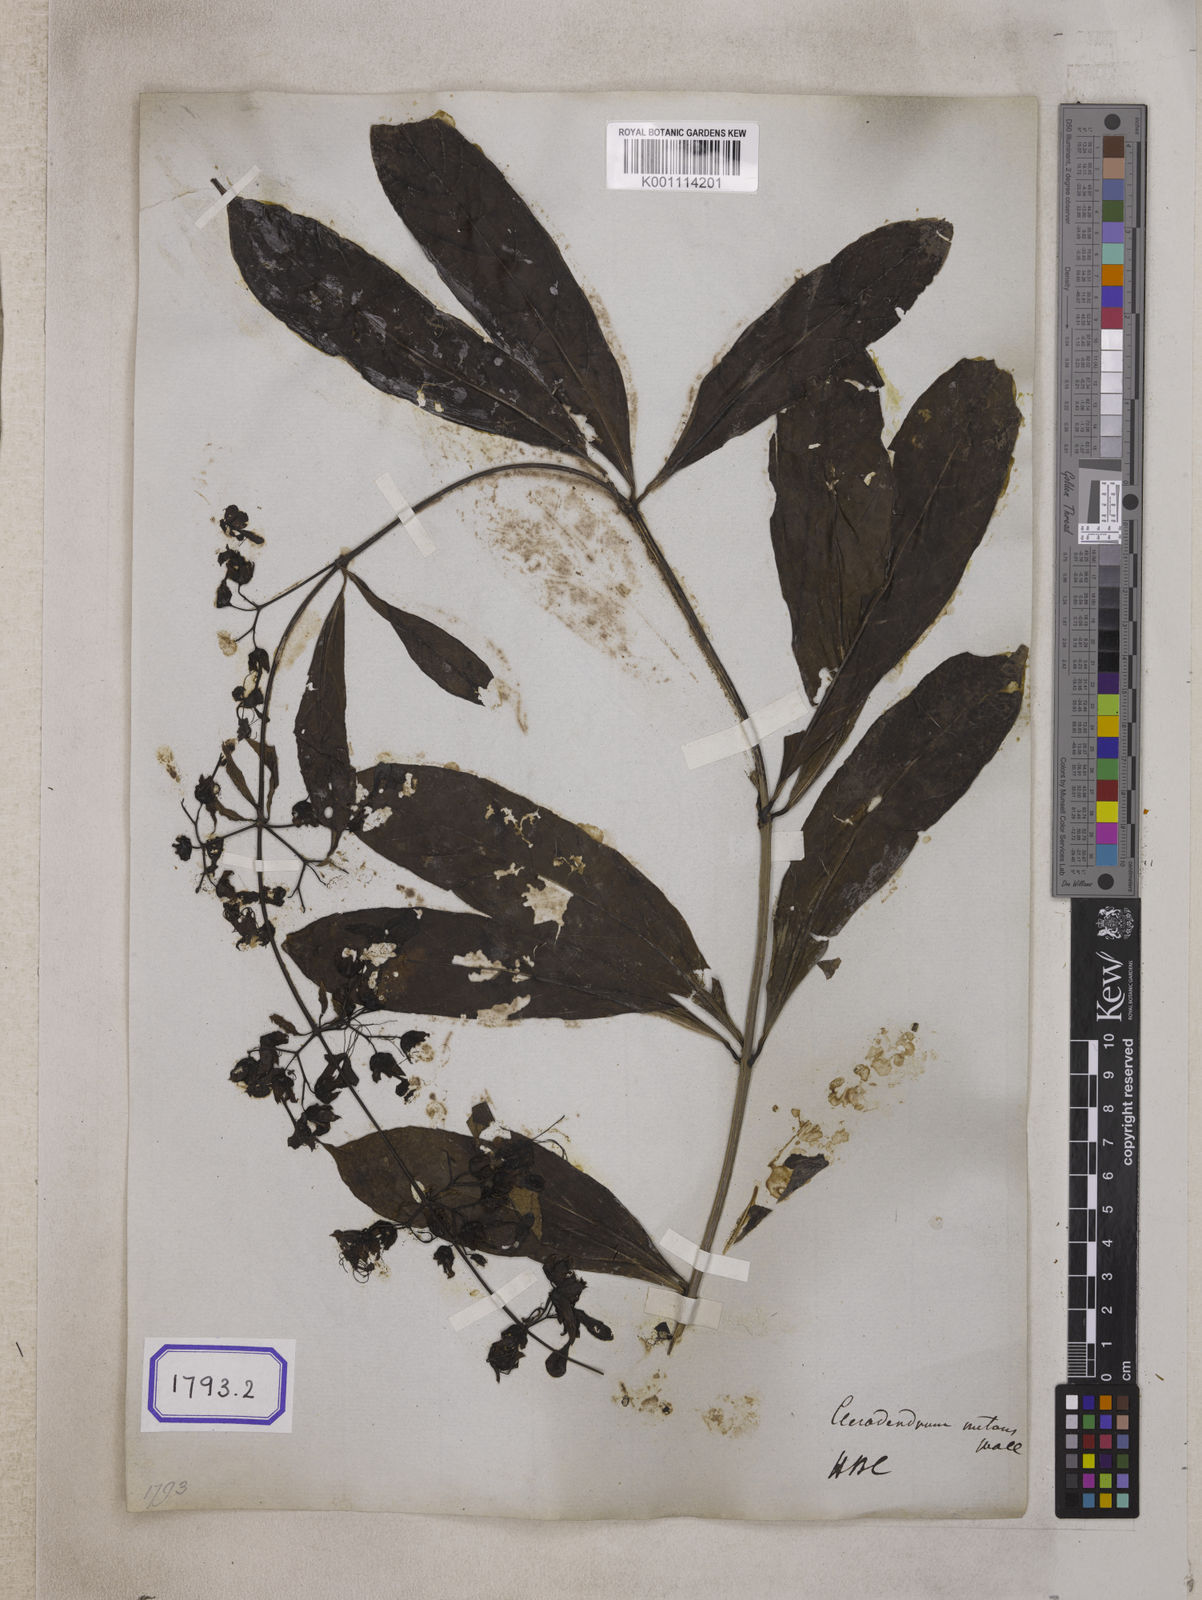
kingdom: Plantae
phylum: Tracheophyta
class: Magnoliopsida
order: Lamiales
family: Lamiaceae
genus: Clerodendrum
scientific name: Clerodendrum
